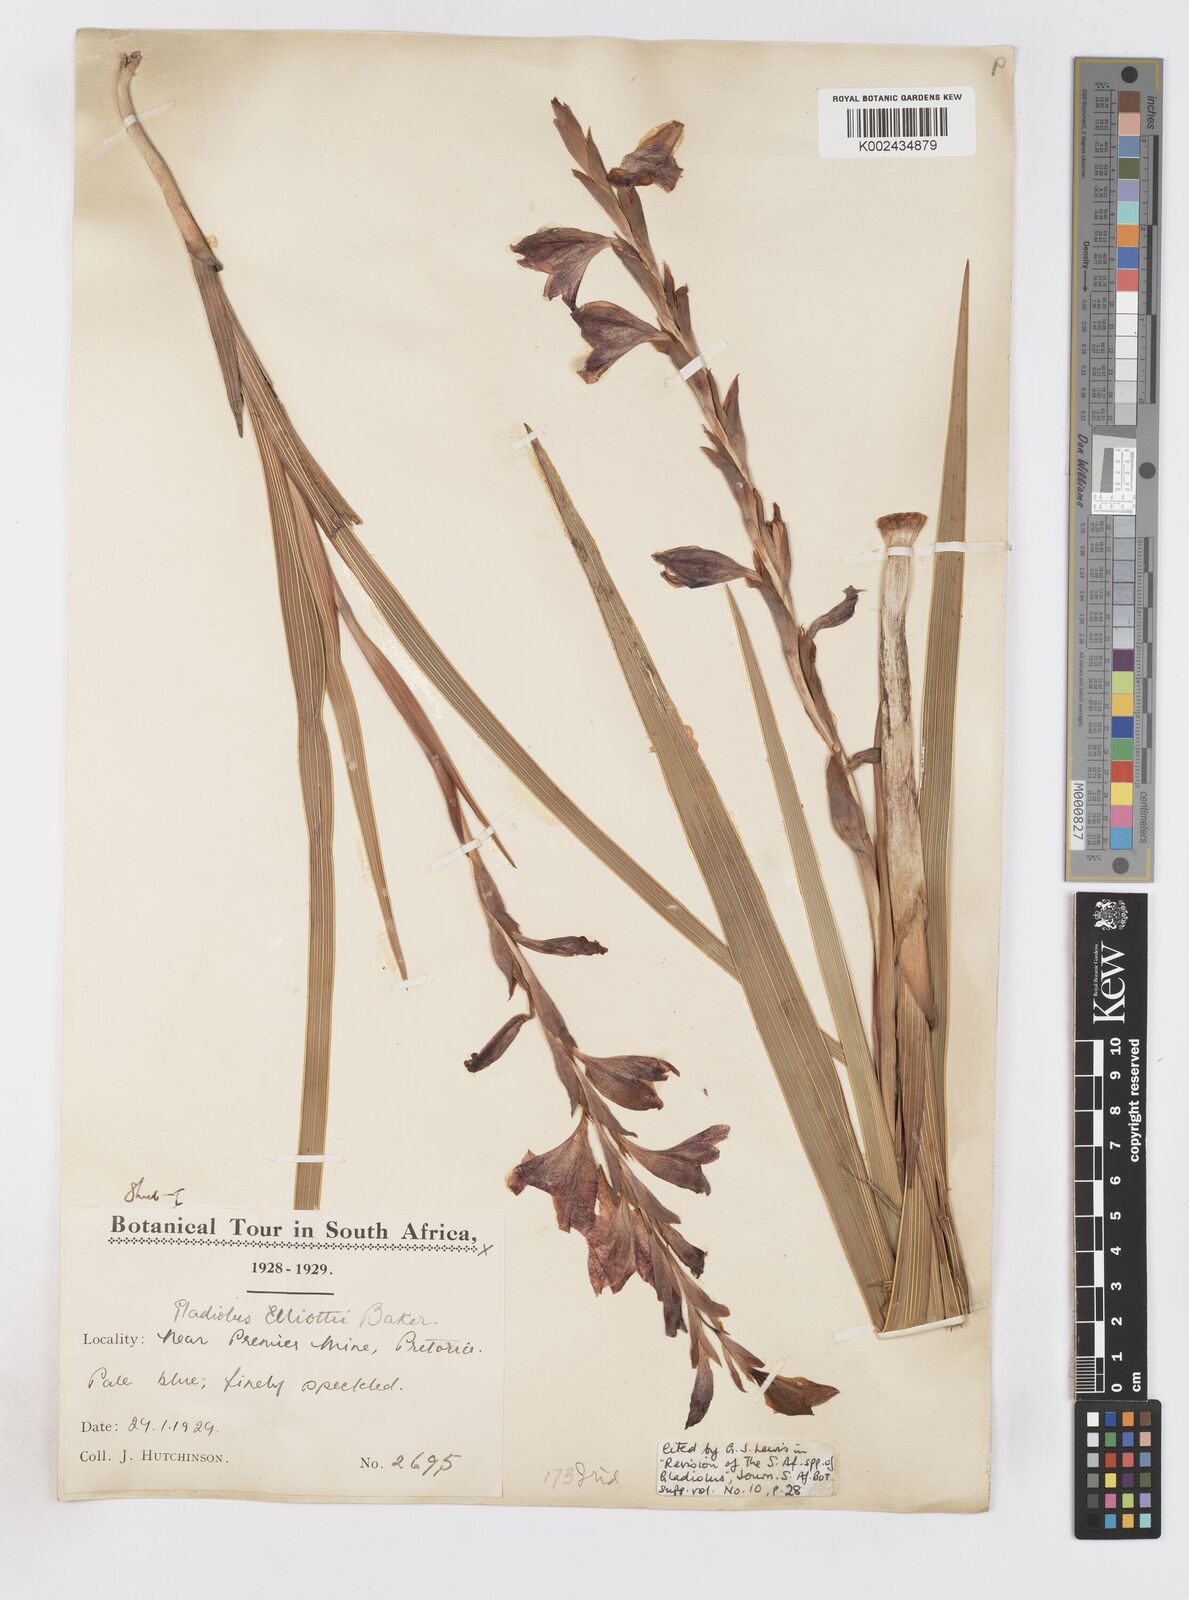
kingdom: Plantae
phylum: Tracheophyta
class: Liliopsida
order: Asparagales
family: Iridaceae
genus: Gladiolus
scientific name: Gladiolus elliotii
